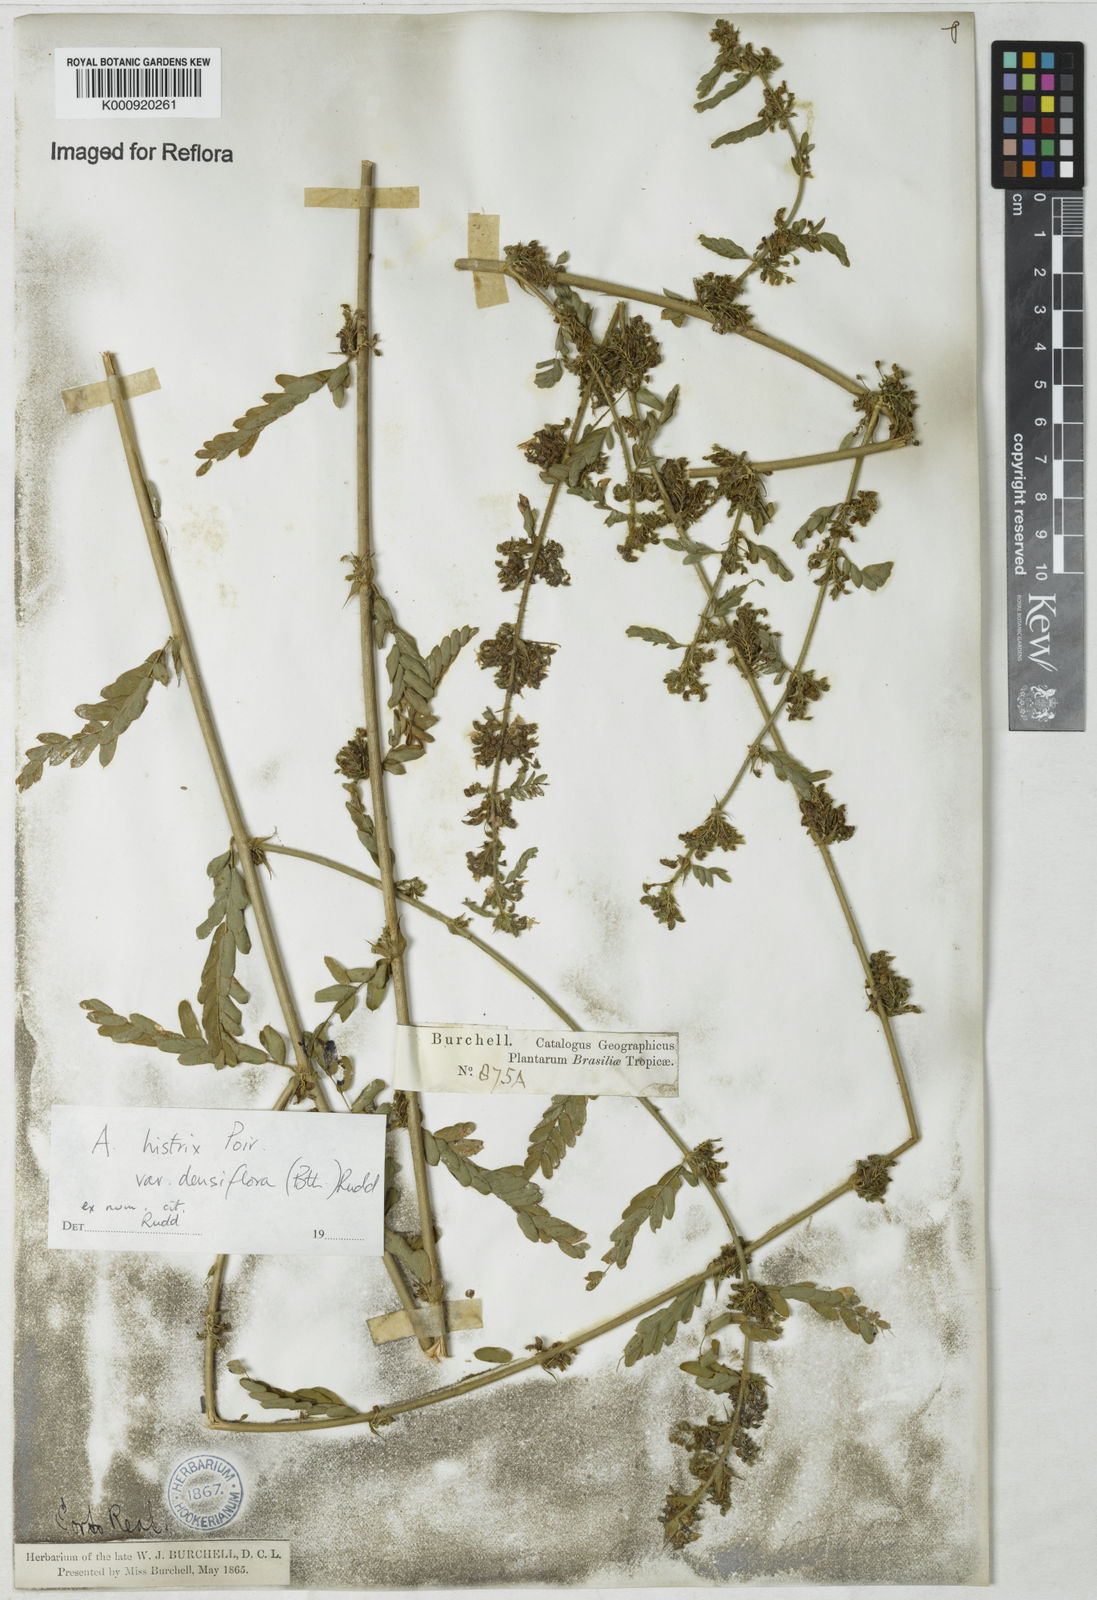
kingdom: Plantae
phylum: Tracheophyta
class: Magnoliopsida
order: Fabales
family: Fabaceae
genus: Ctenodon
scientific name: Ctenodon histrix
